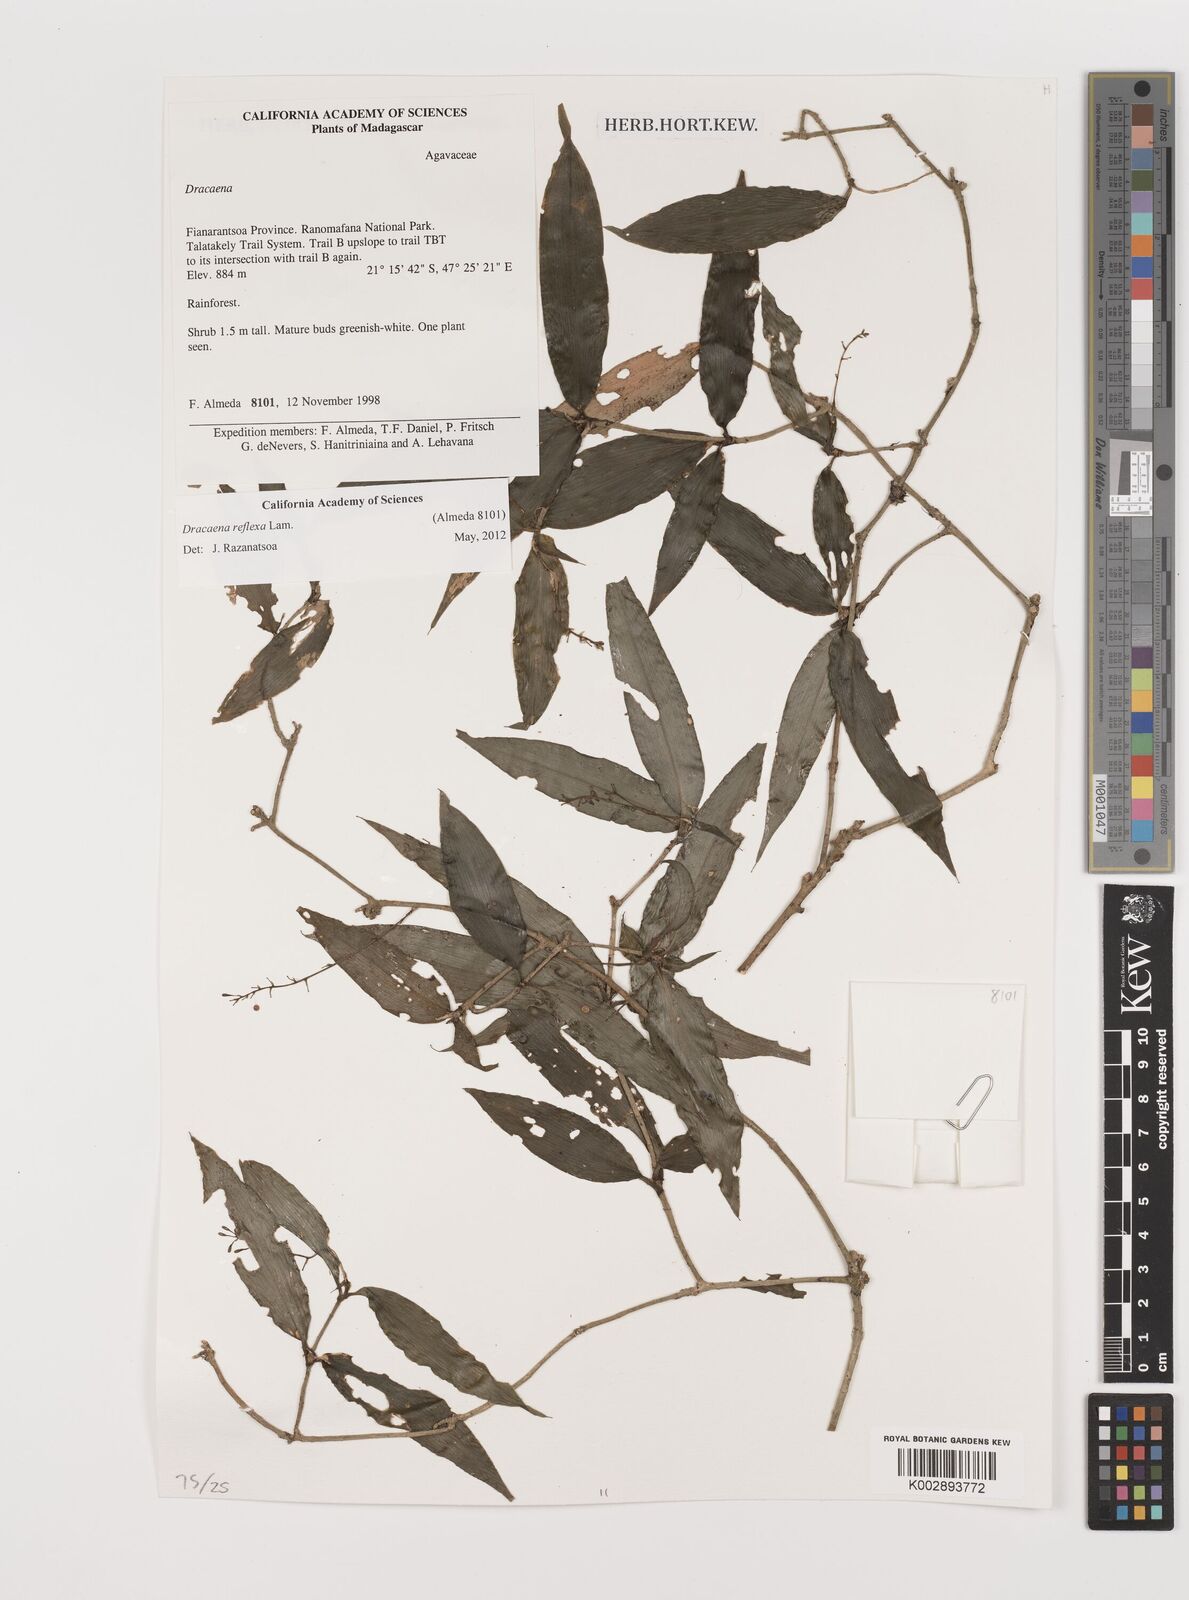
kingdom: Plantae
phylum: Tracheophyta
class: Liliopsida
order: Asparagales
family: Asparagaceae
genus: Dracaena
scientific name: Dracaena reflexa
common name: Song-of-india
